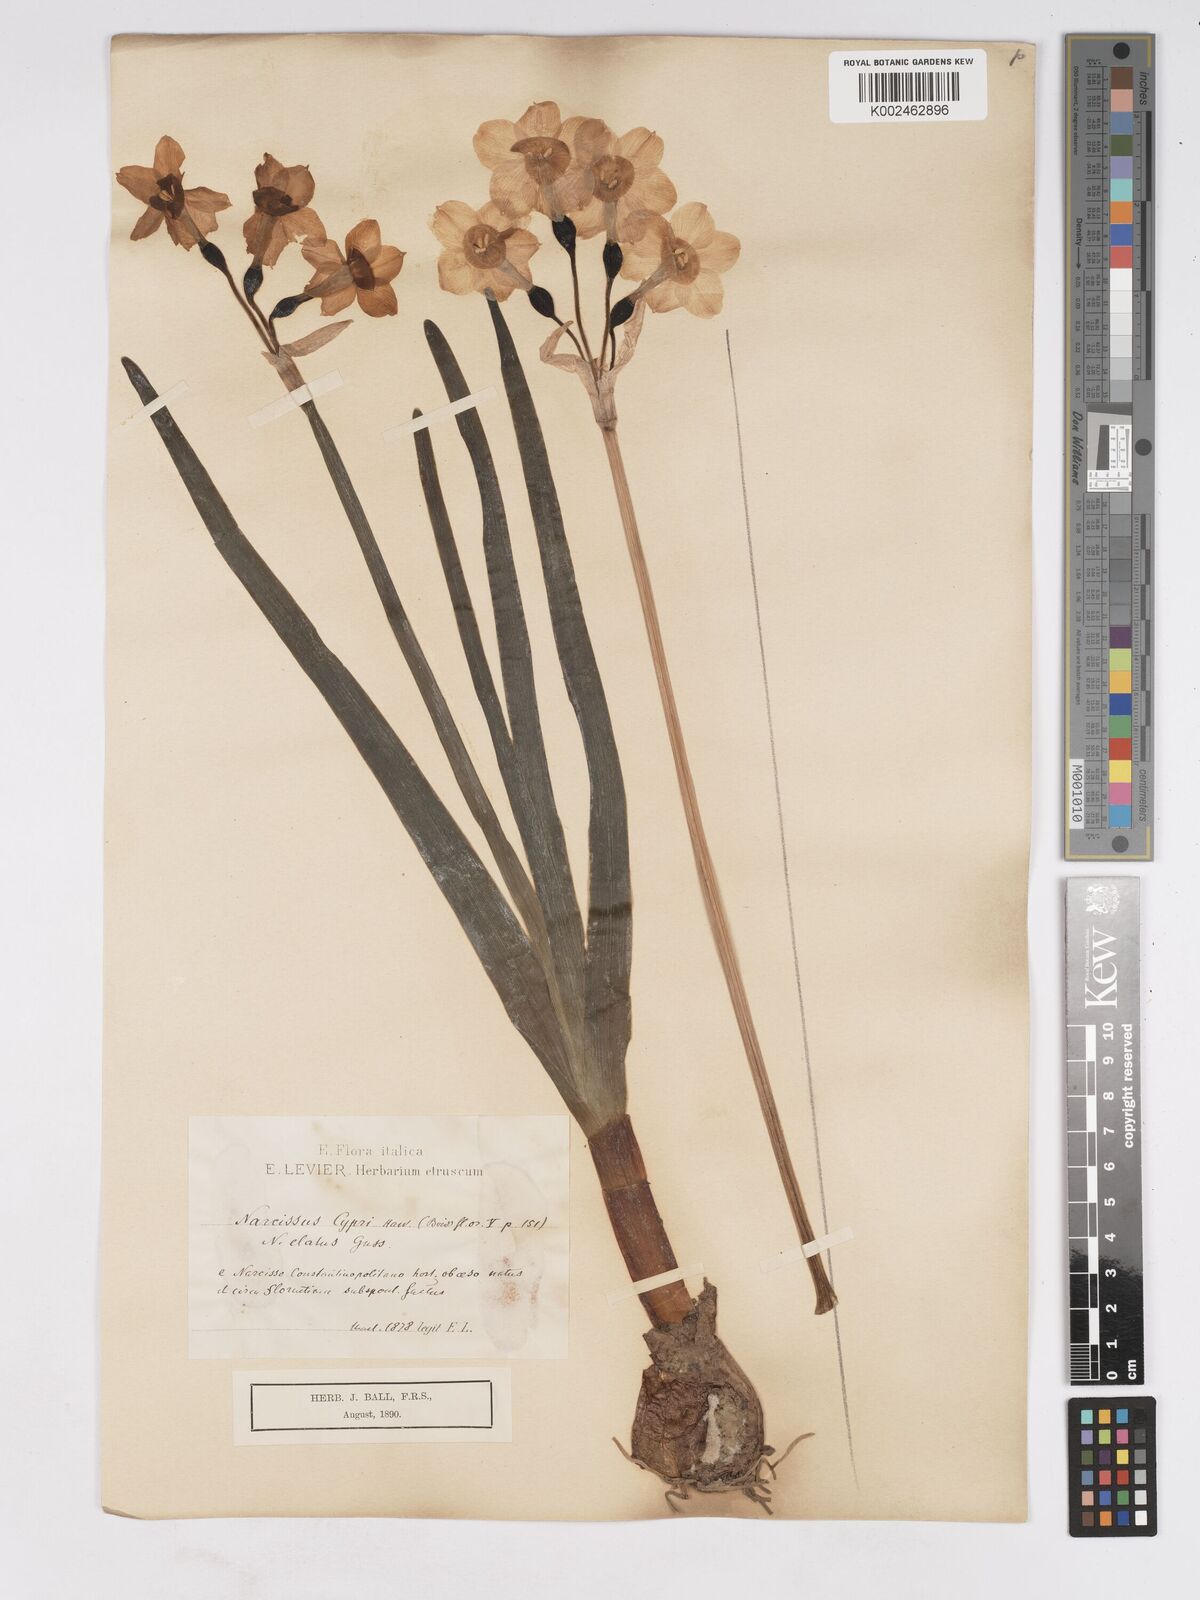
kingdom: Plantae
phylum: Tracheophyta
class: Liliopsida
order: Asparagales
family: Amaryllidaceae
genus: Narcissus
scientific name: Narcissus
